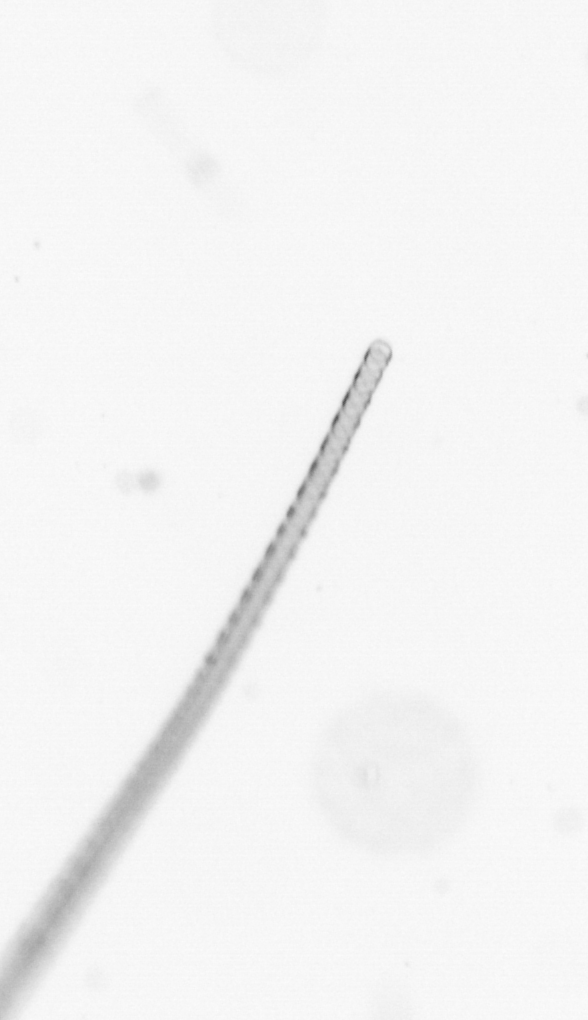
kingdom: Chromista
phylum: Ochrophyta
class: Bacillariophyceae
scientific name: Bacillariophyceae
